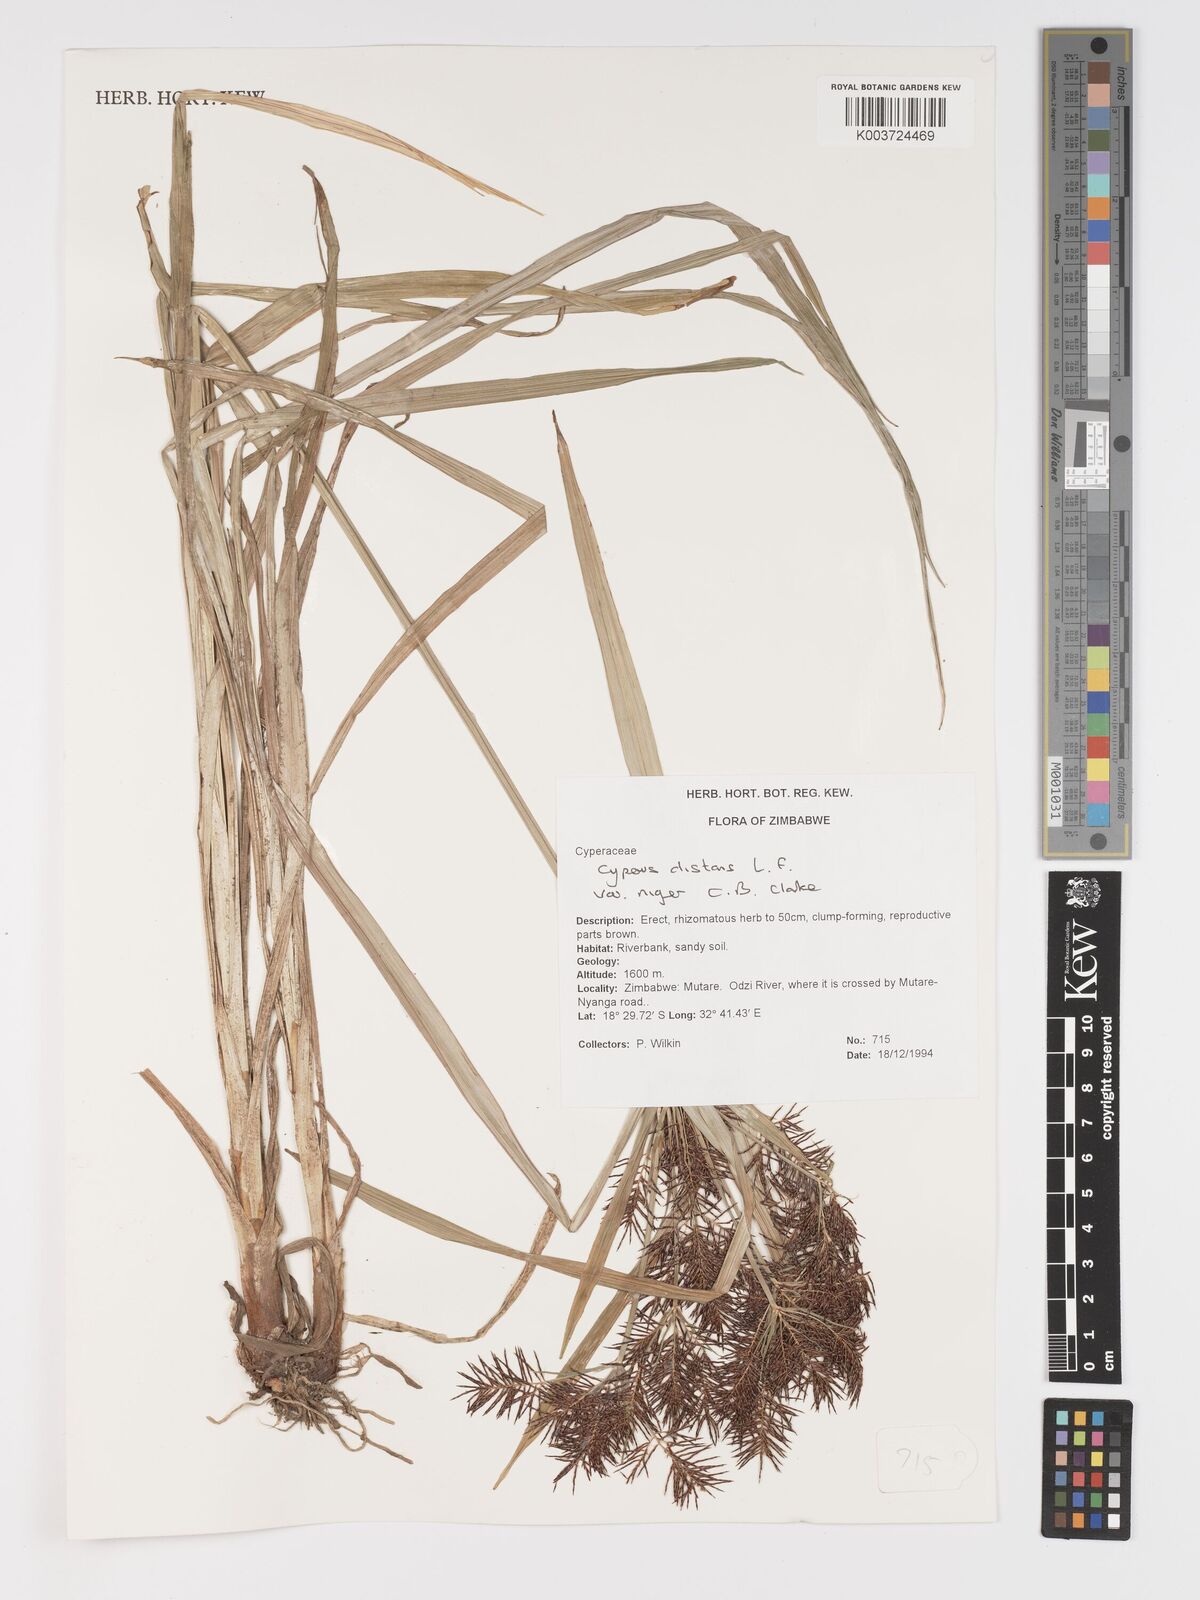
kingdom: Plantae
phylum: Tracheophyta
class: Liliopsida
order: Poales
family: Cyperaceae
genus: Cyperus
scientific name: Cyperus
